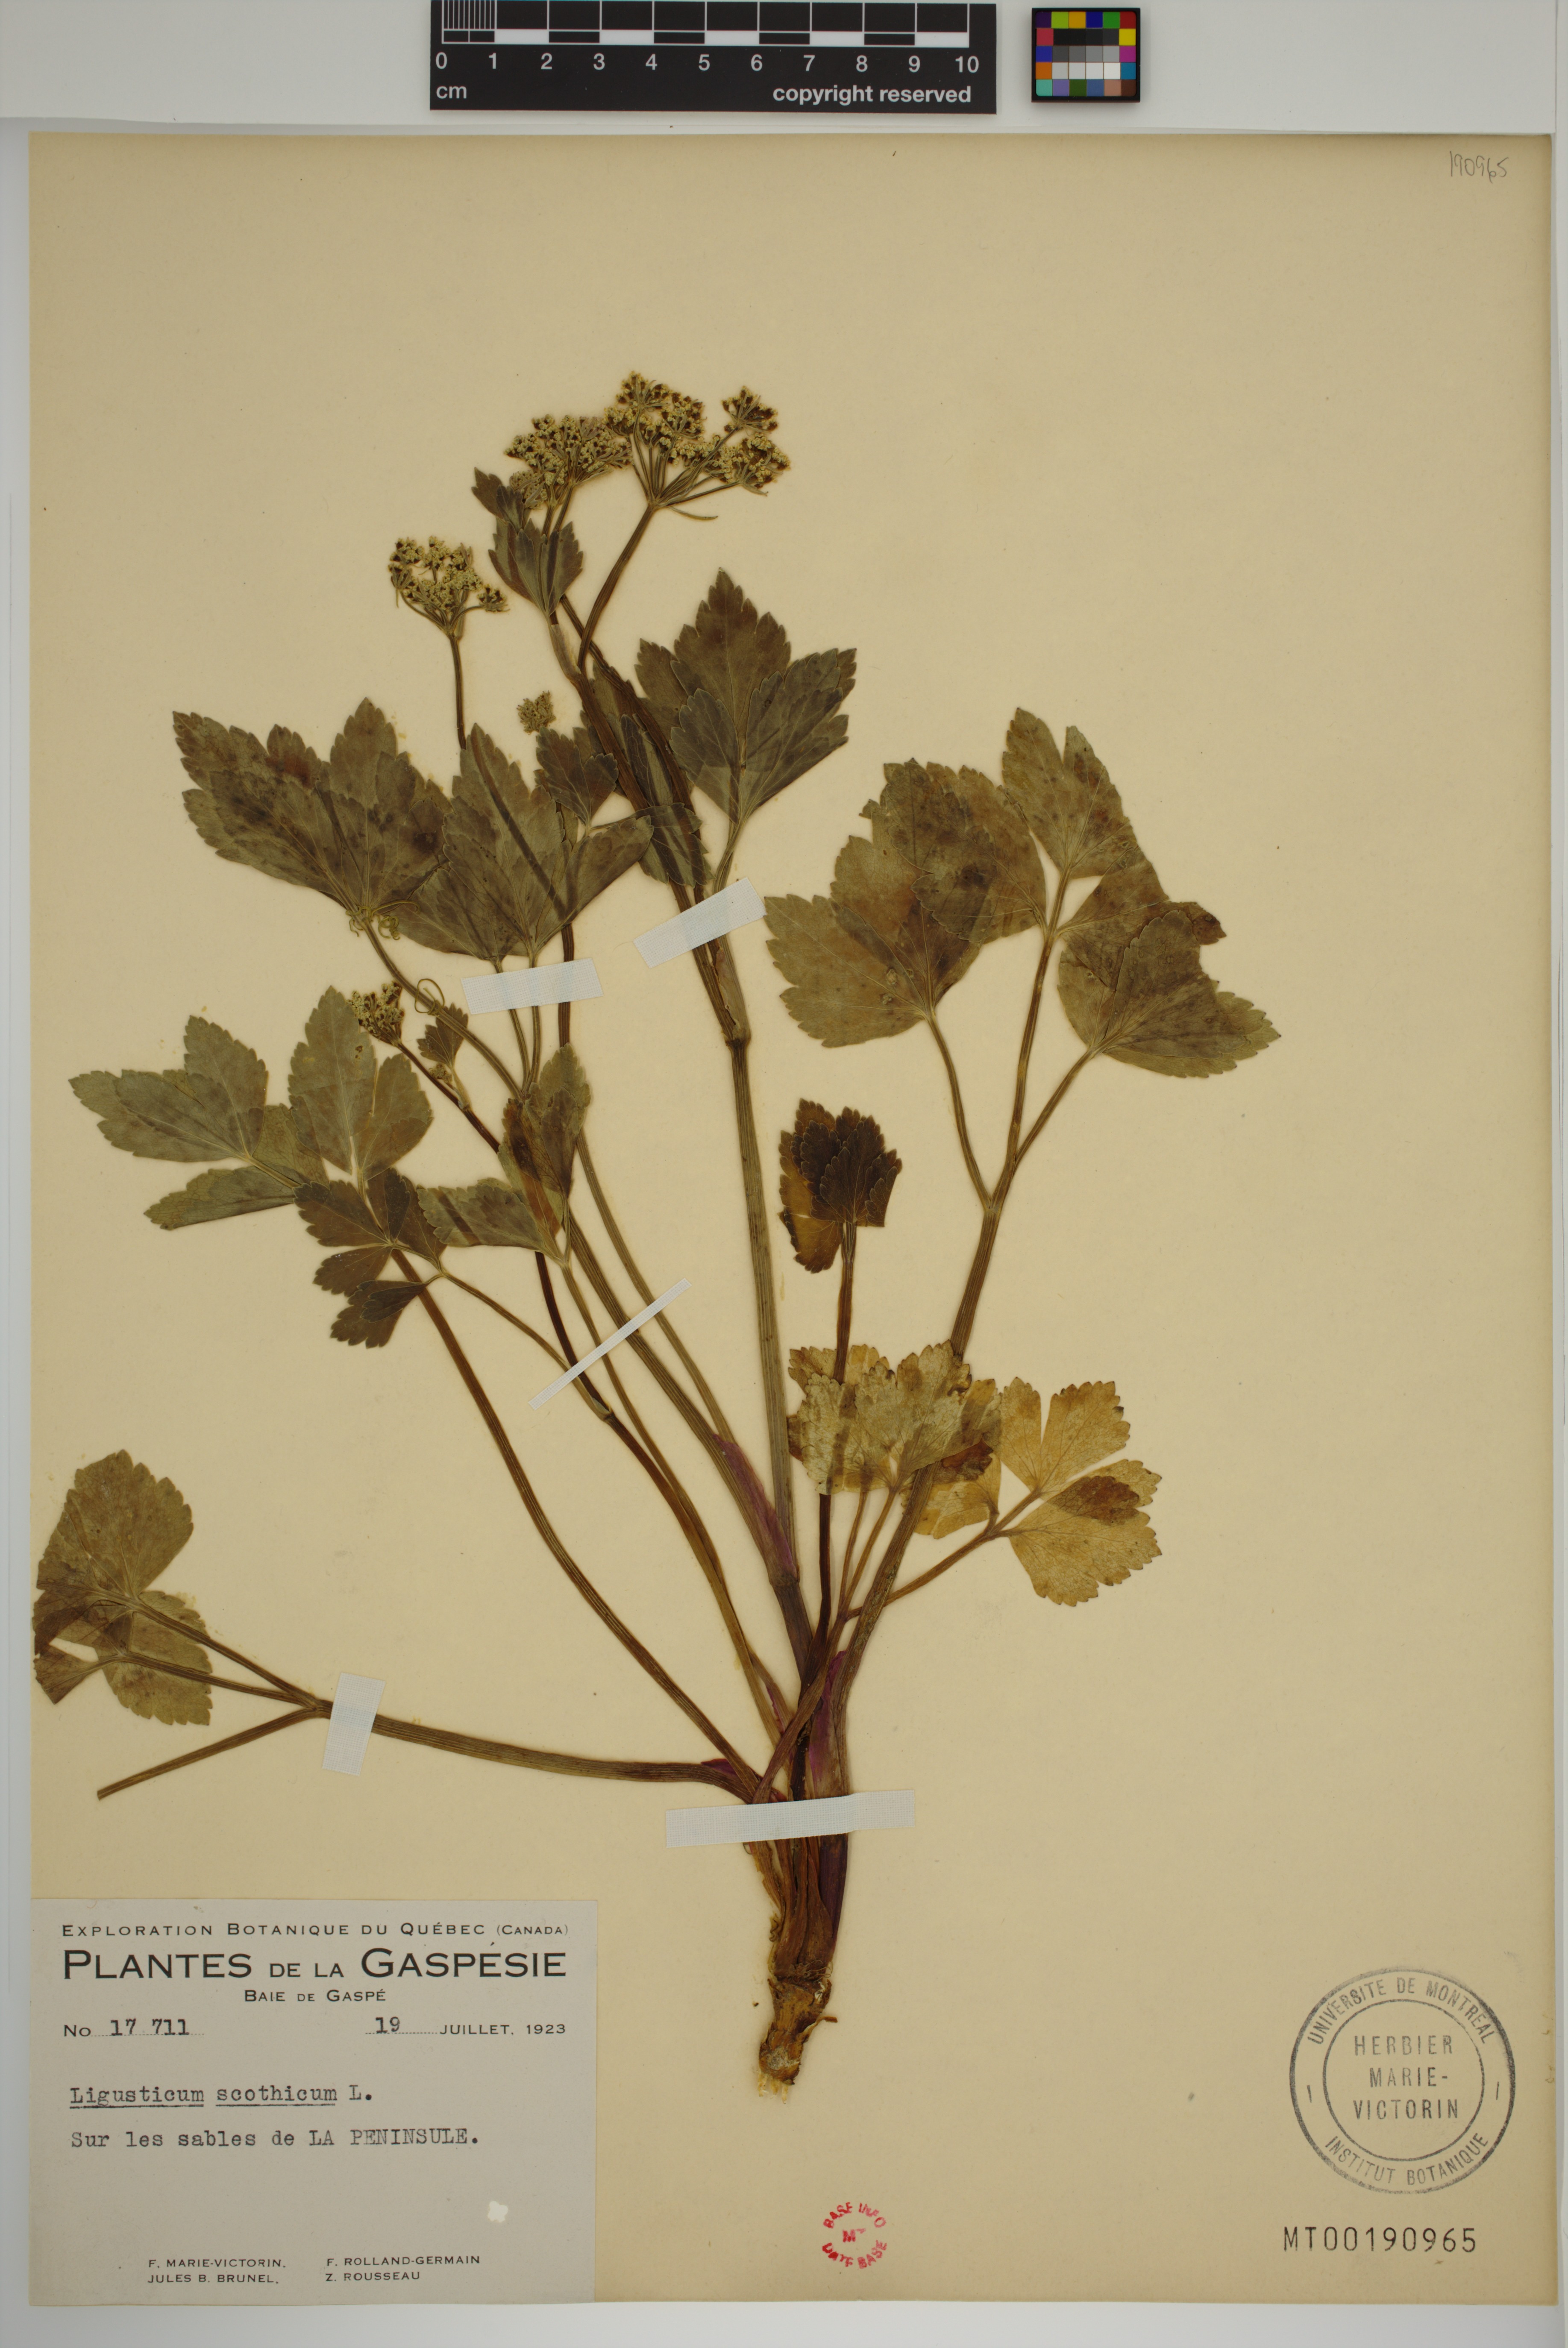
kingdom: Plantae
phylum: Tracheophyta
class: Magnoliopsida
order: Apiales
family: Apiaceae
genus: Ligusticum
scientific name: Ligusticum scothicum
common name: Beach lovage
